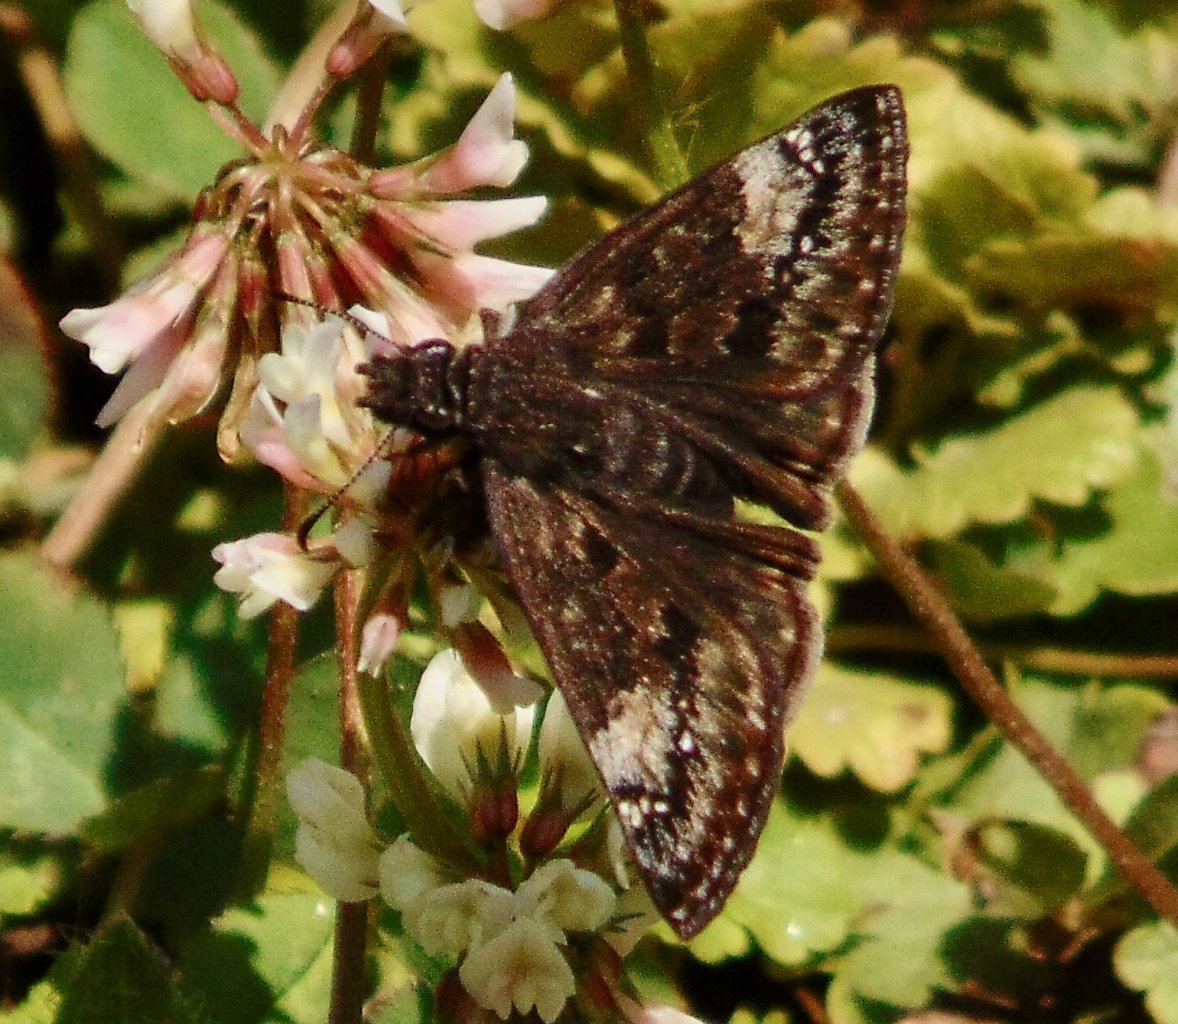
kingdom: Animalia
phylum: Arthropoda
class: Insecta
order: Lepidoptera
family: Hesperiidae
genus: Gesta
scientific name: Gesta
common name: Wild Indigo Duskywing
